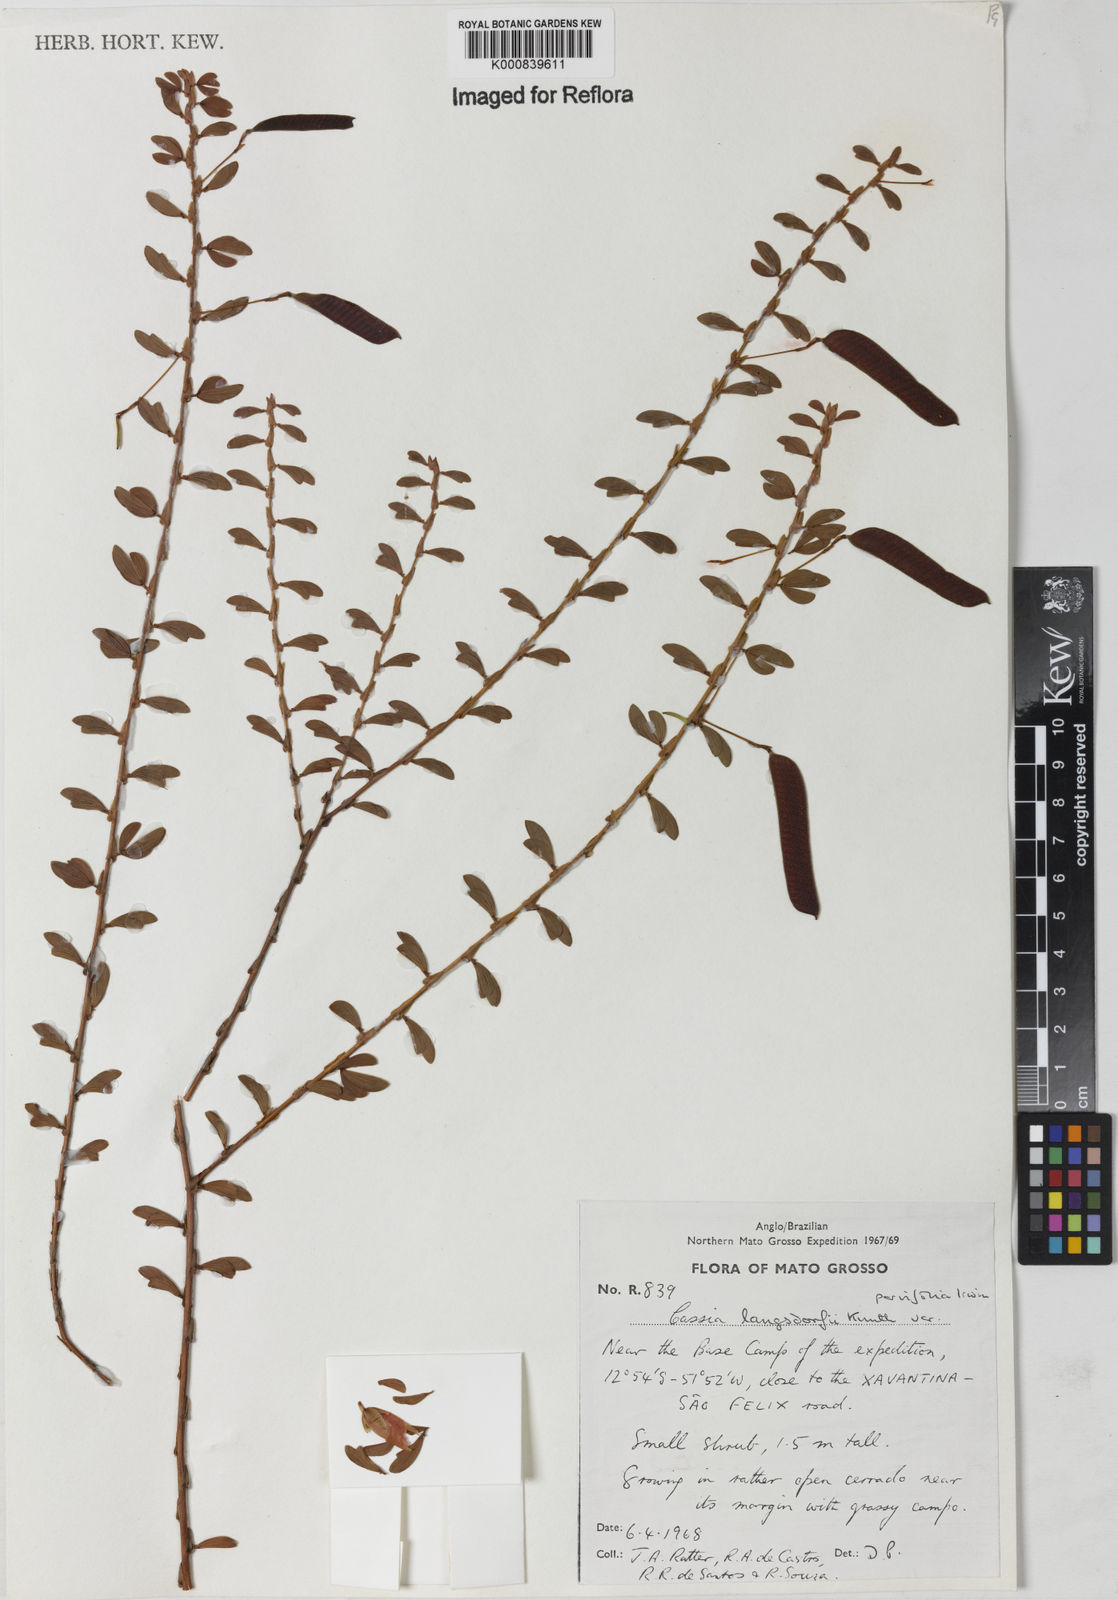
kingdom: Plantae
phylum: Tracheophyta
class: Magnoliopsida
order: Fabales
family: Fabaceae
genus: Chamaecrista
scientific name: Chamaecrista ramosa
